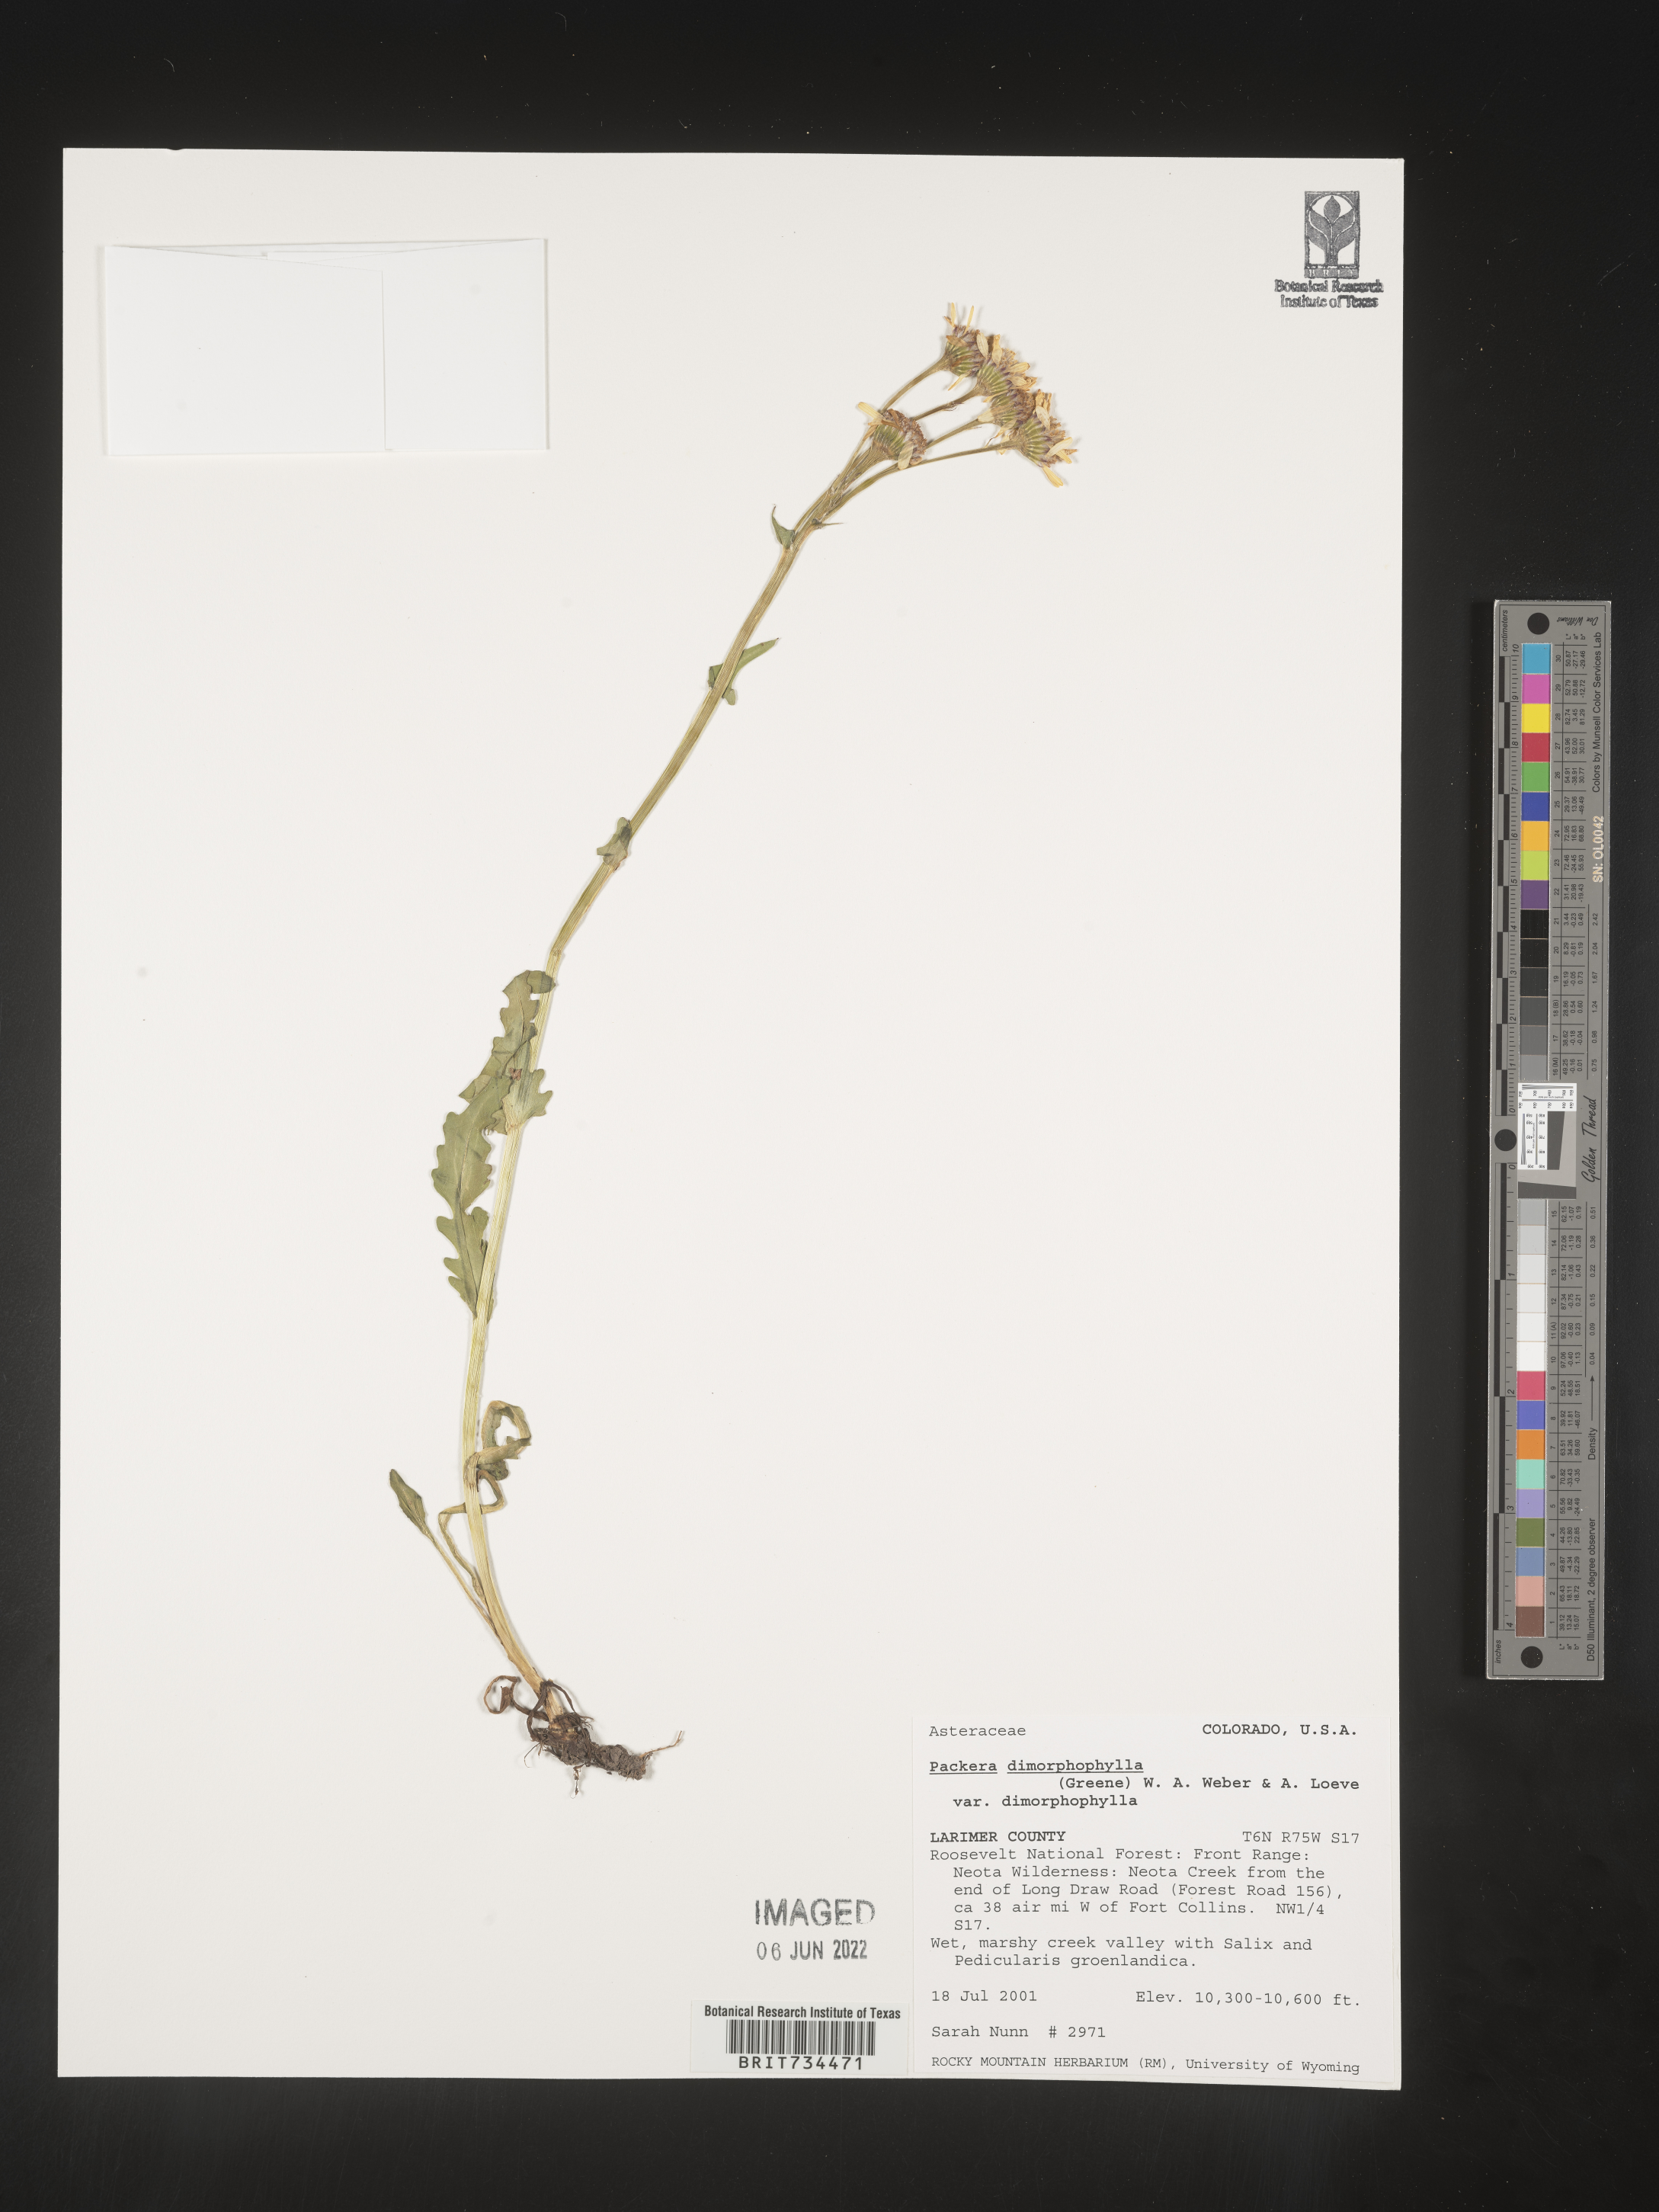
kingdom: Plantae
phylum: Tracheophyta
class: Magnoliopsida
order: Asterales
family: Asteraceae
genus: Packera
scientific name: Packera dimorphophylla
